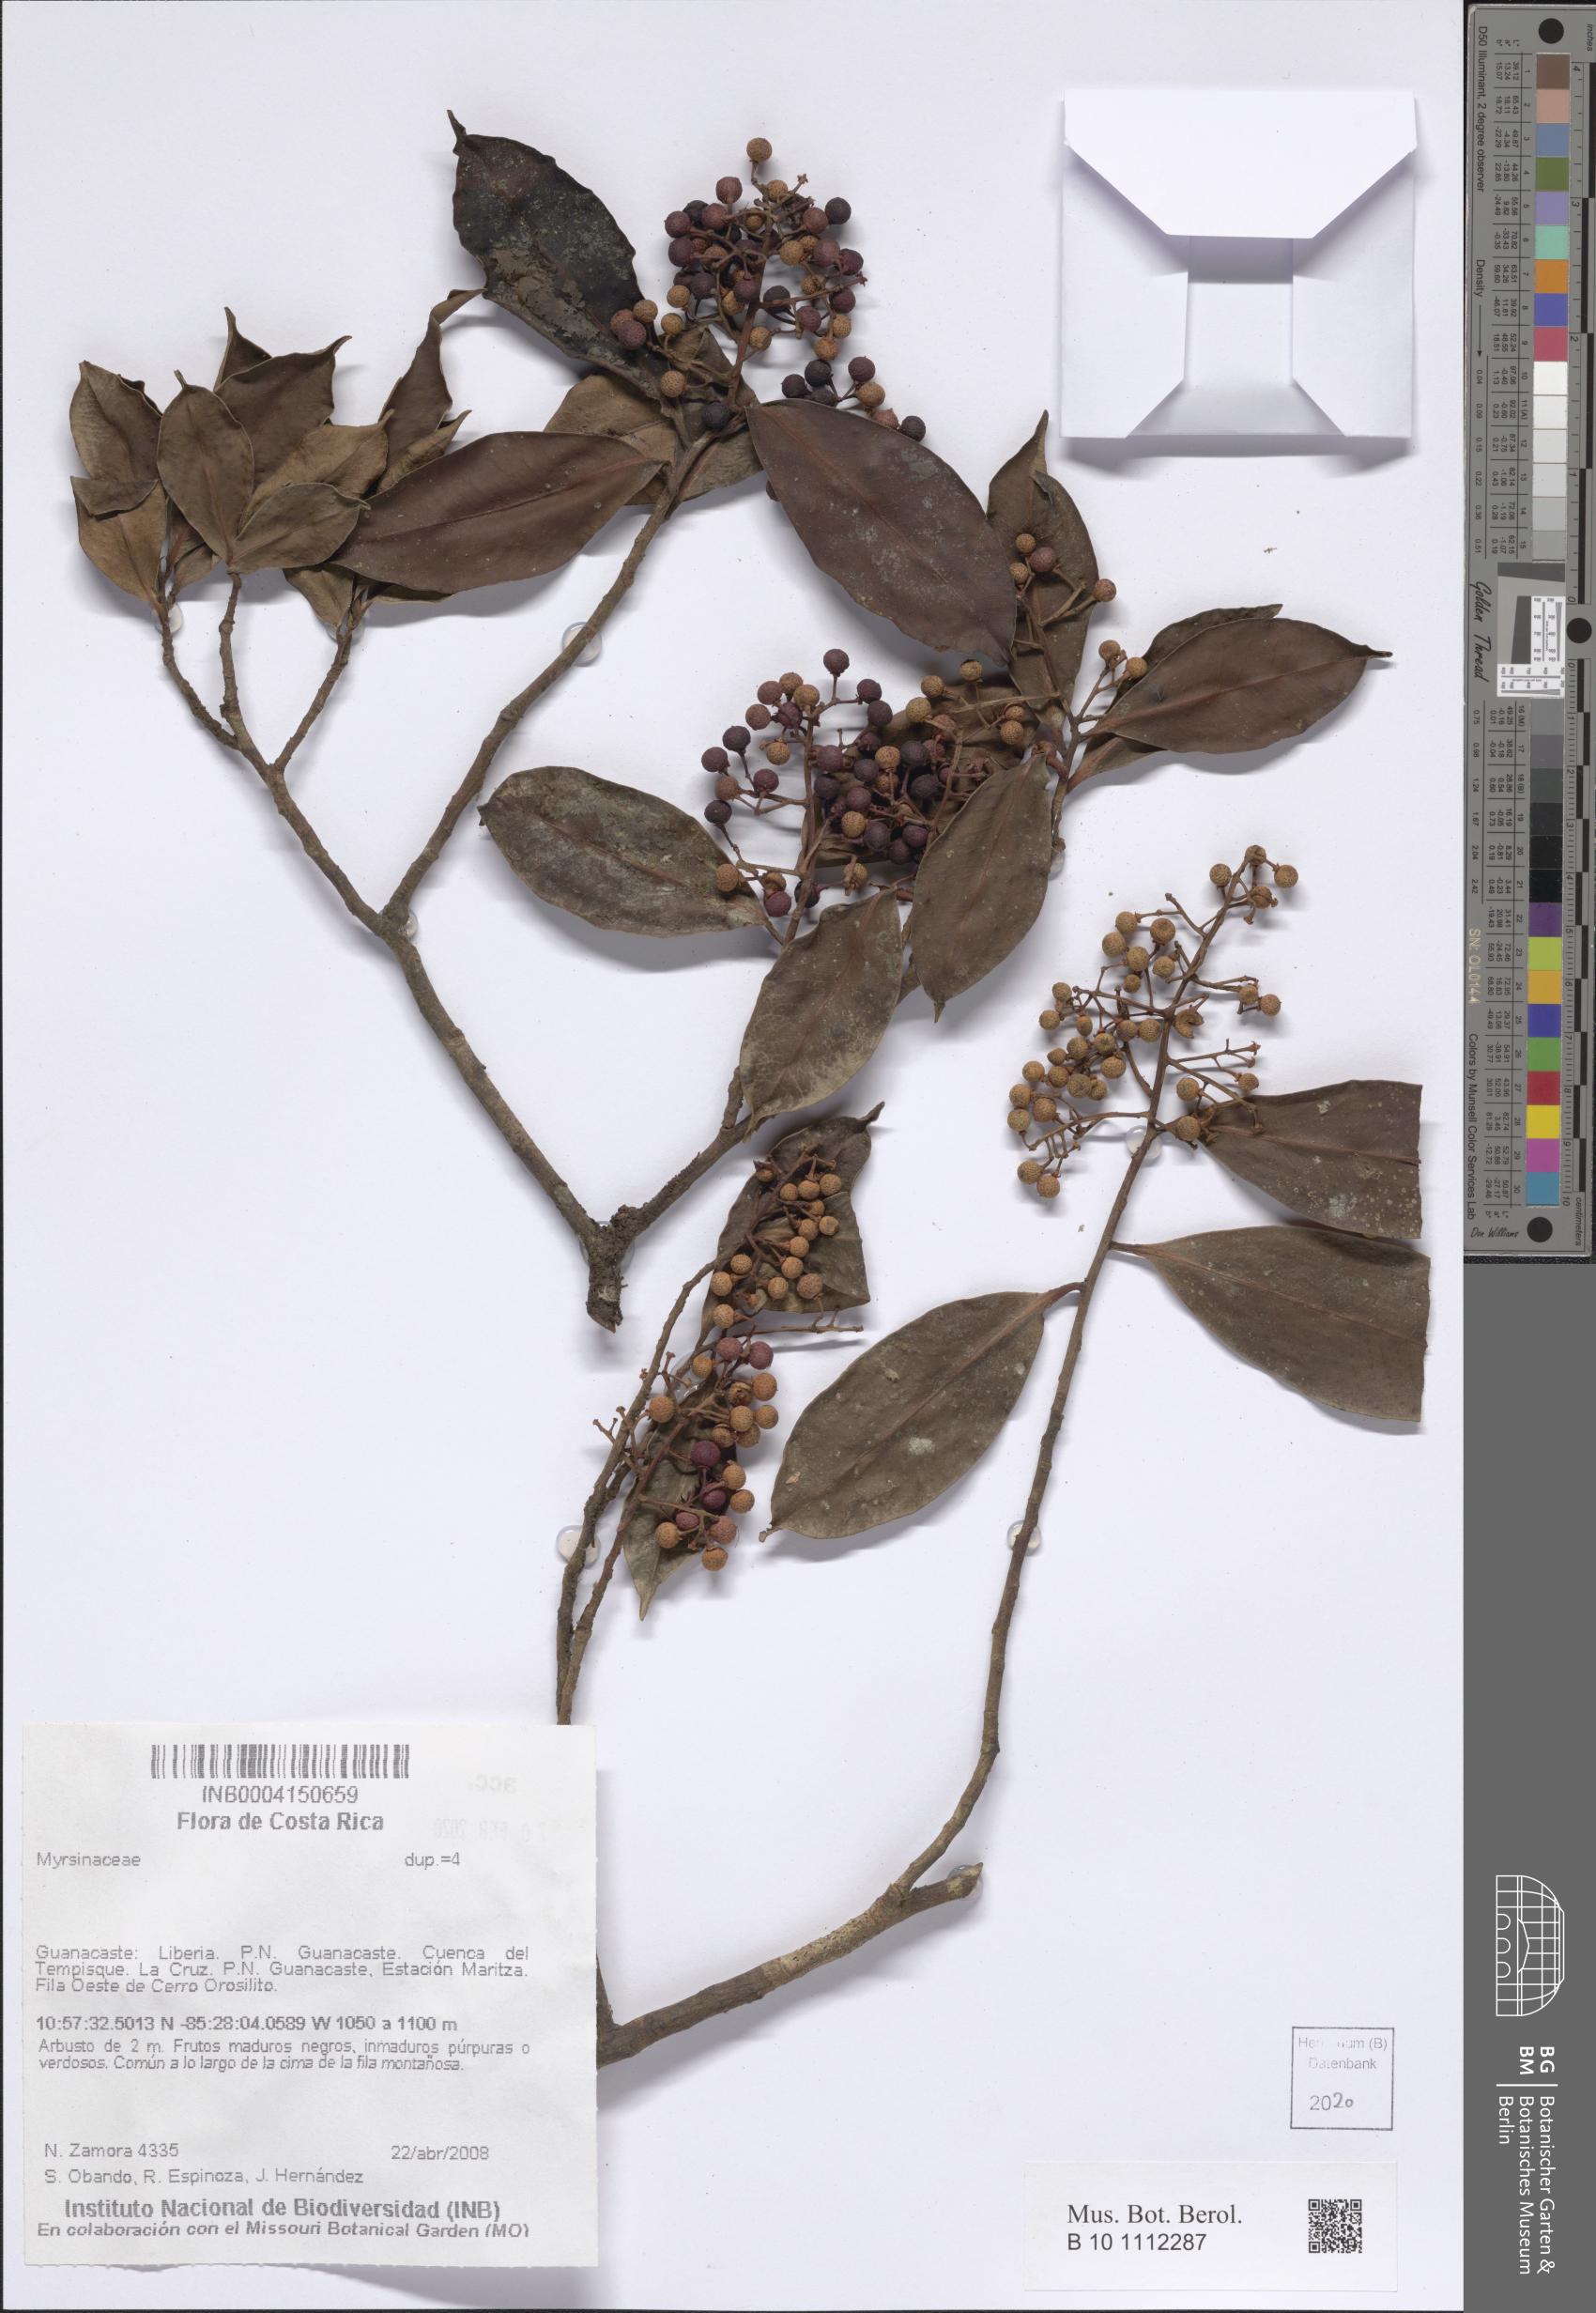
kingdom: Plantae
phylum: Tracheophyta
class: Magnoliopsida
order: Ericales
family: Primulaceae
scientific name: Primulaceae
